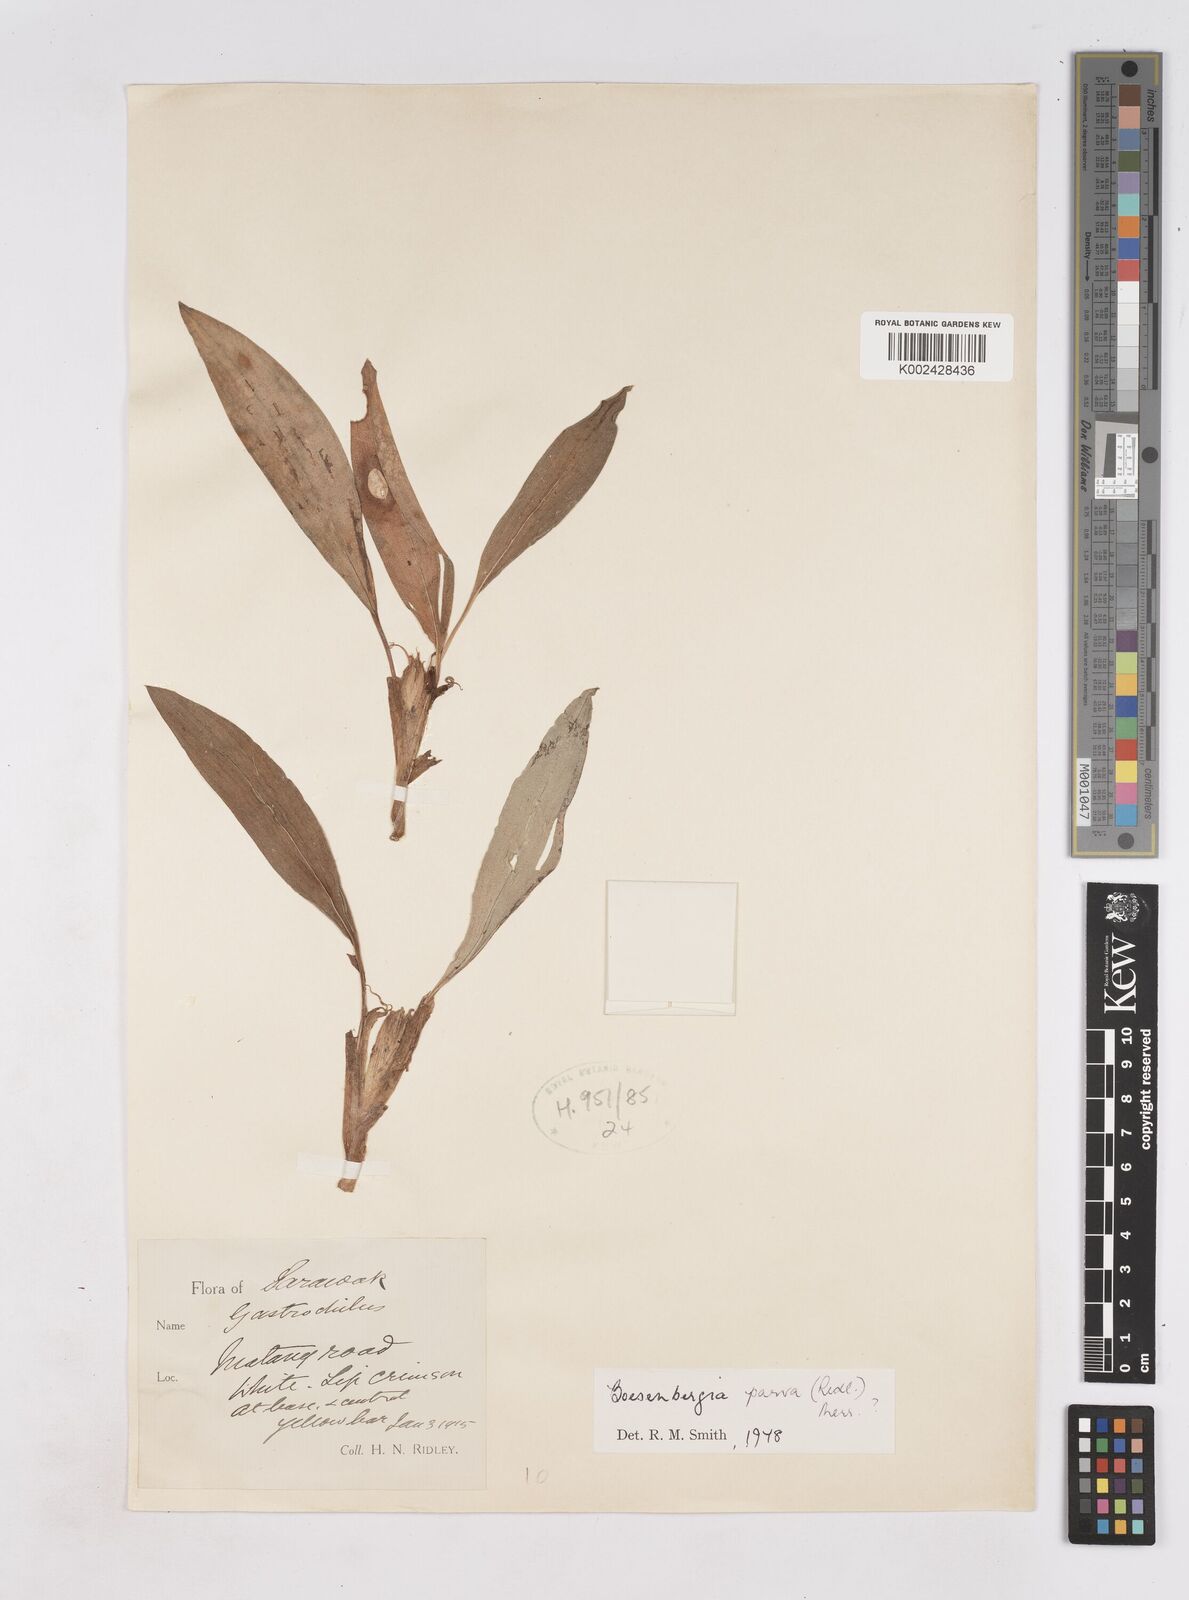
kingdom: Plantae
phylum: Tracheophyta
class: Liliopsida
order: Zingiberales
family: Zingiberaceae
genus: Boesenbergia
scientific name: Boesenbergia parva
